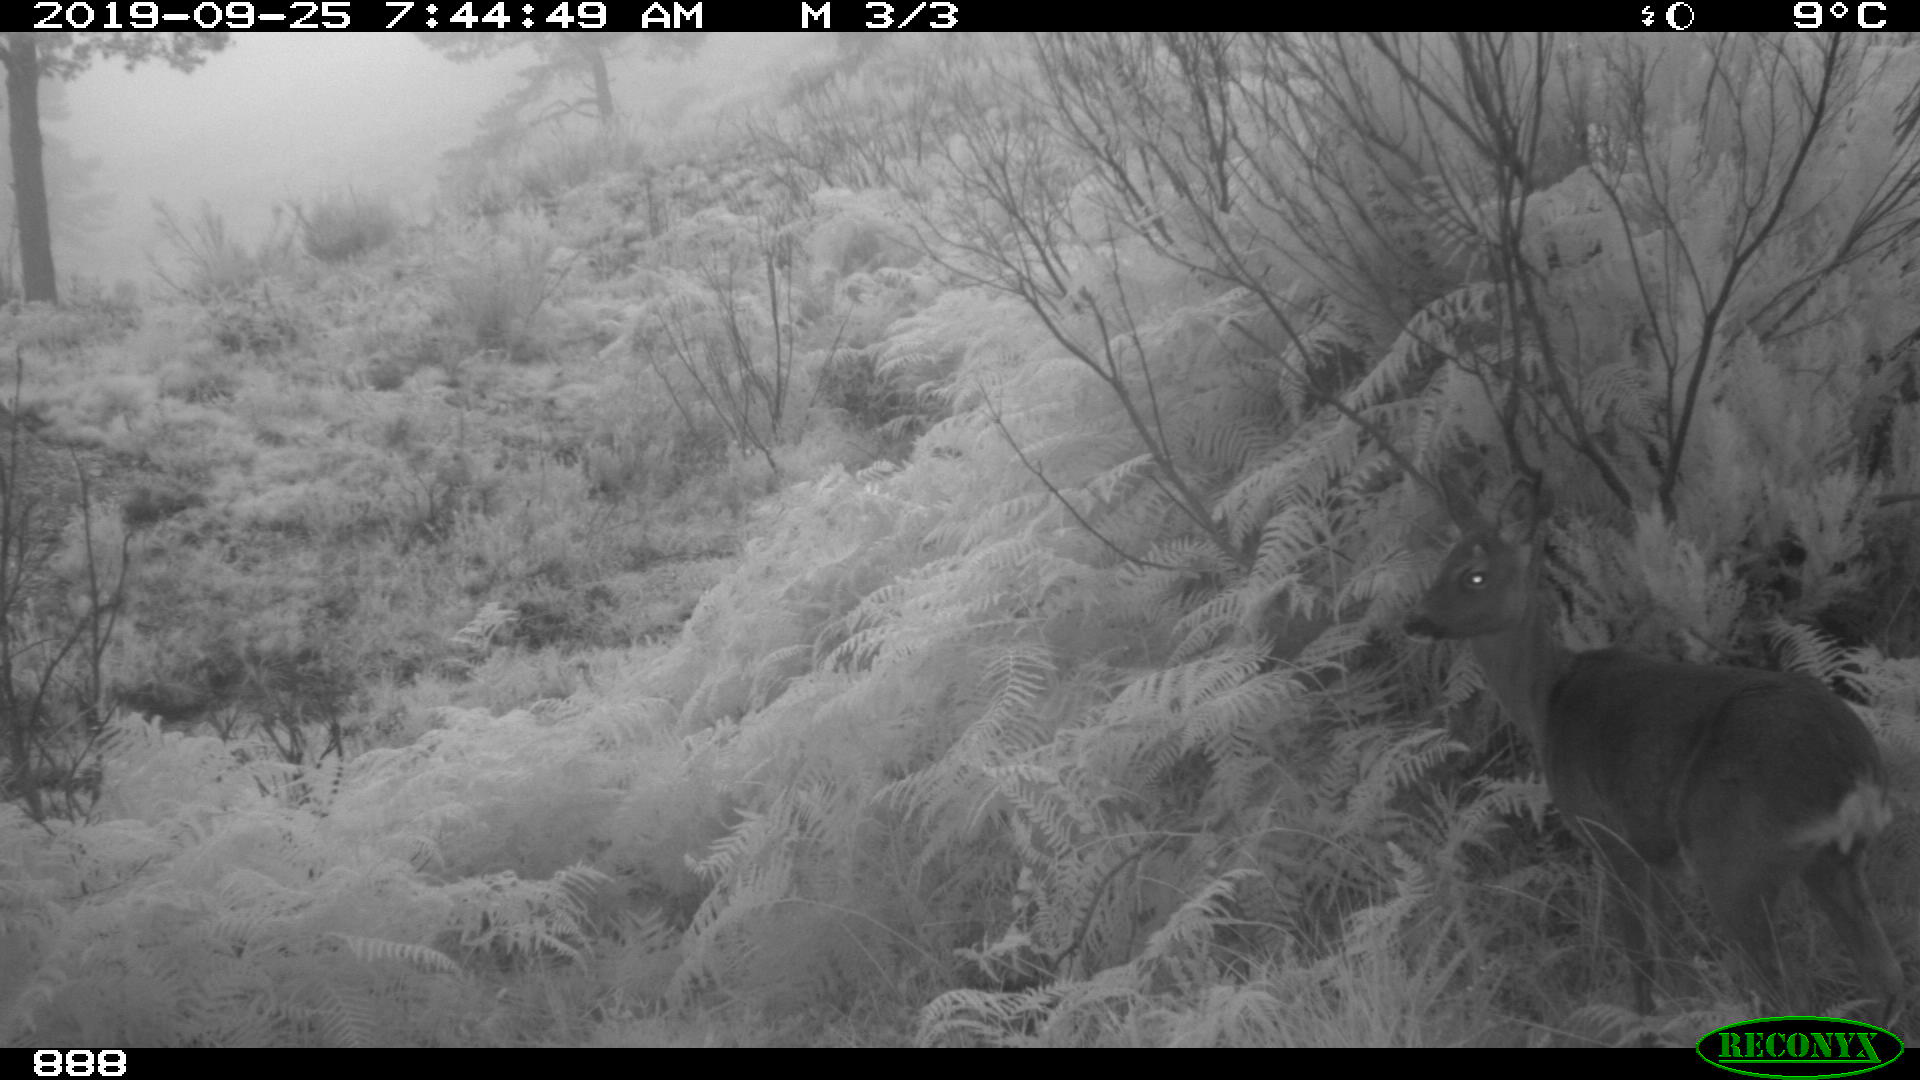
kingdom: Animalia
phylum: Chordata
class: Mammalia
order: Artiodactyla
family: Cervidae
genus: Capreolus
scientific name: Capreolus capreolus
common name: Western roe deer
